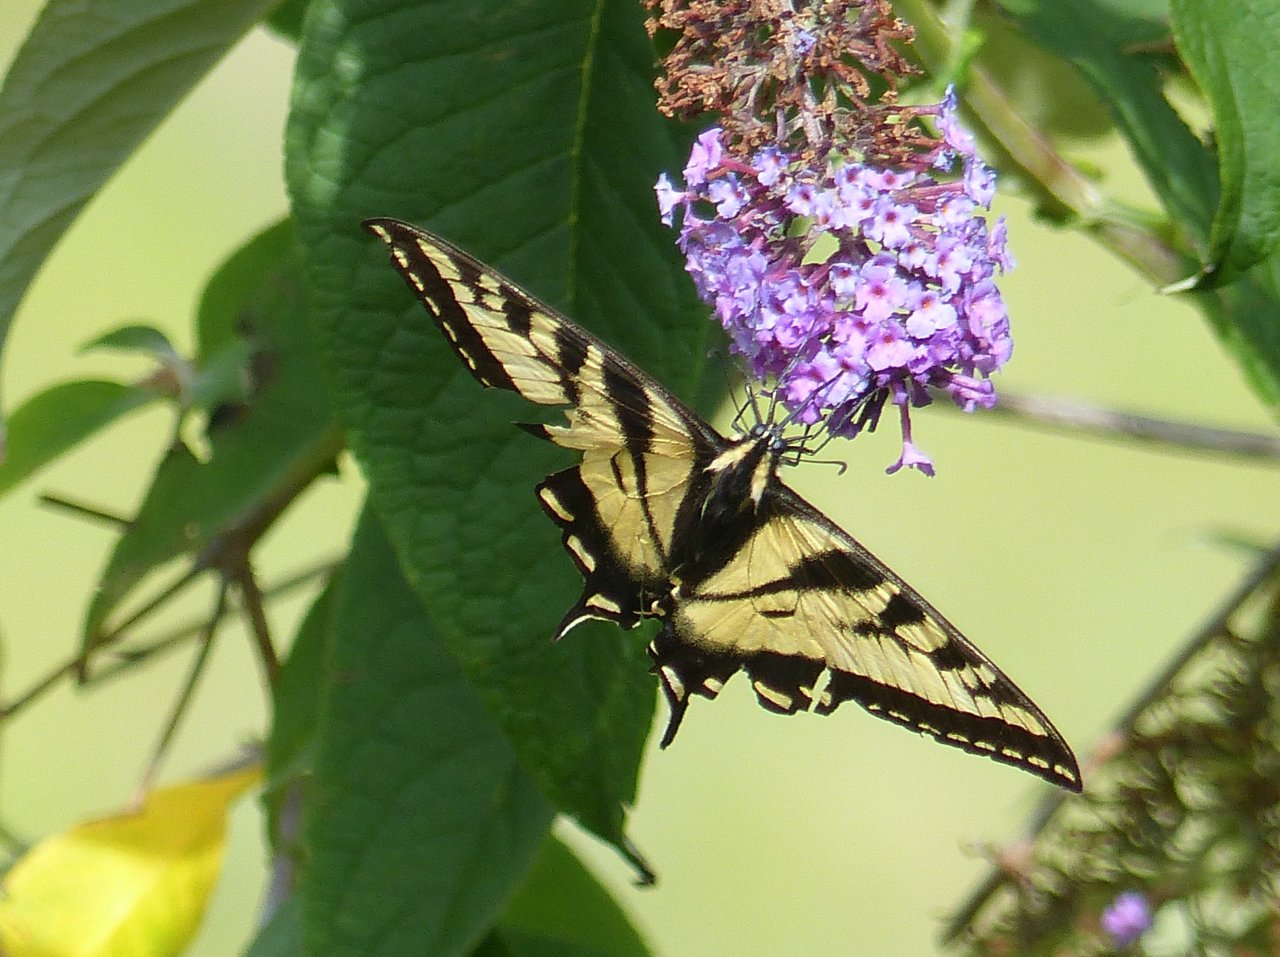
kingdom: Animalia
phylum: Arthropoda
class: Insecta
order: Lepidoptera
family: Papilionidae
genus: Pterourus
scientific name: Pterourus rutulus
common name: Western Tiger Swallowtail
